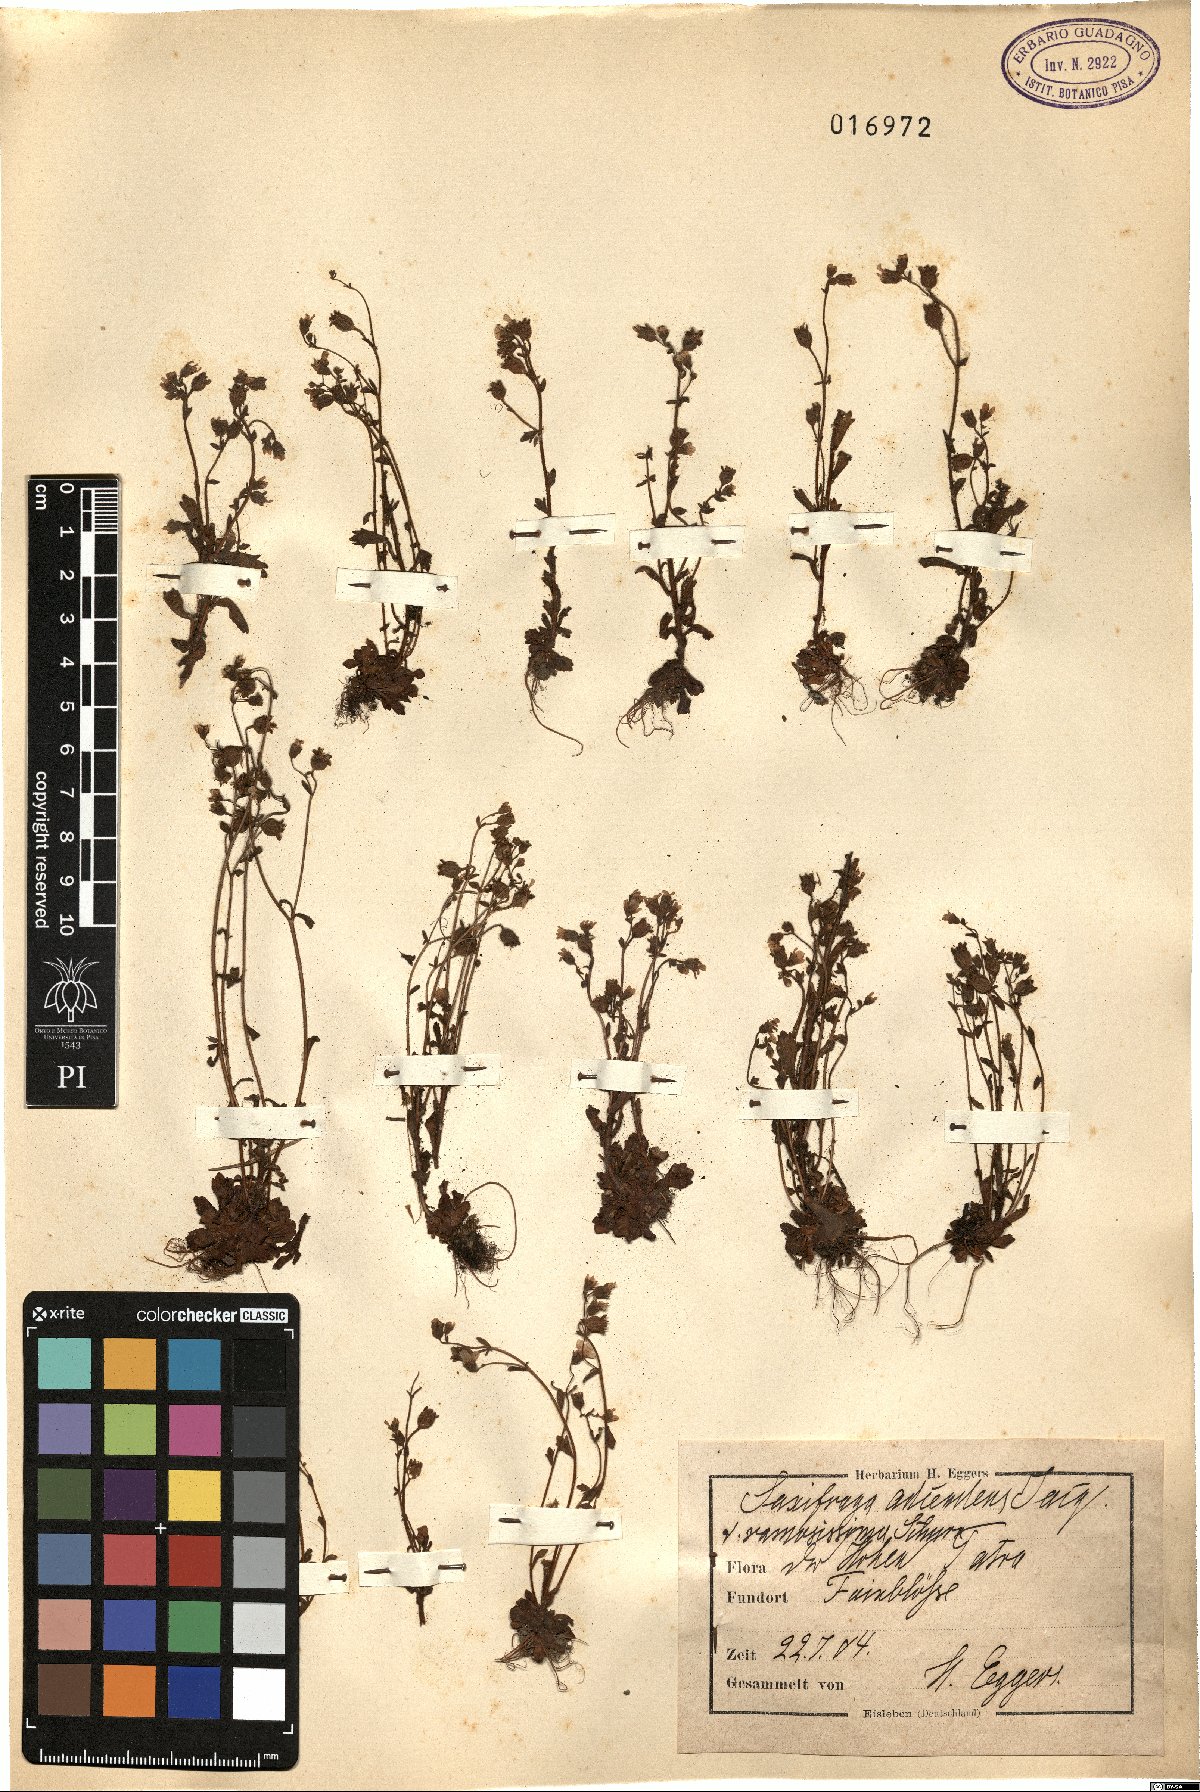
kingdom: Plantae
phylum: Tracheophyta
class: Magnoliopsida
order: Saxifragales
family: Saxifragaceae
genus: Saxifraga
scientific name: Saxifraga adscendens
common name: Ascending saxifrage
